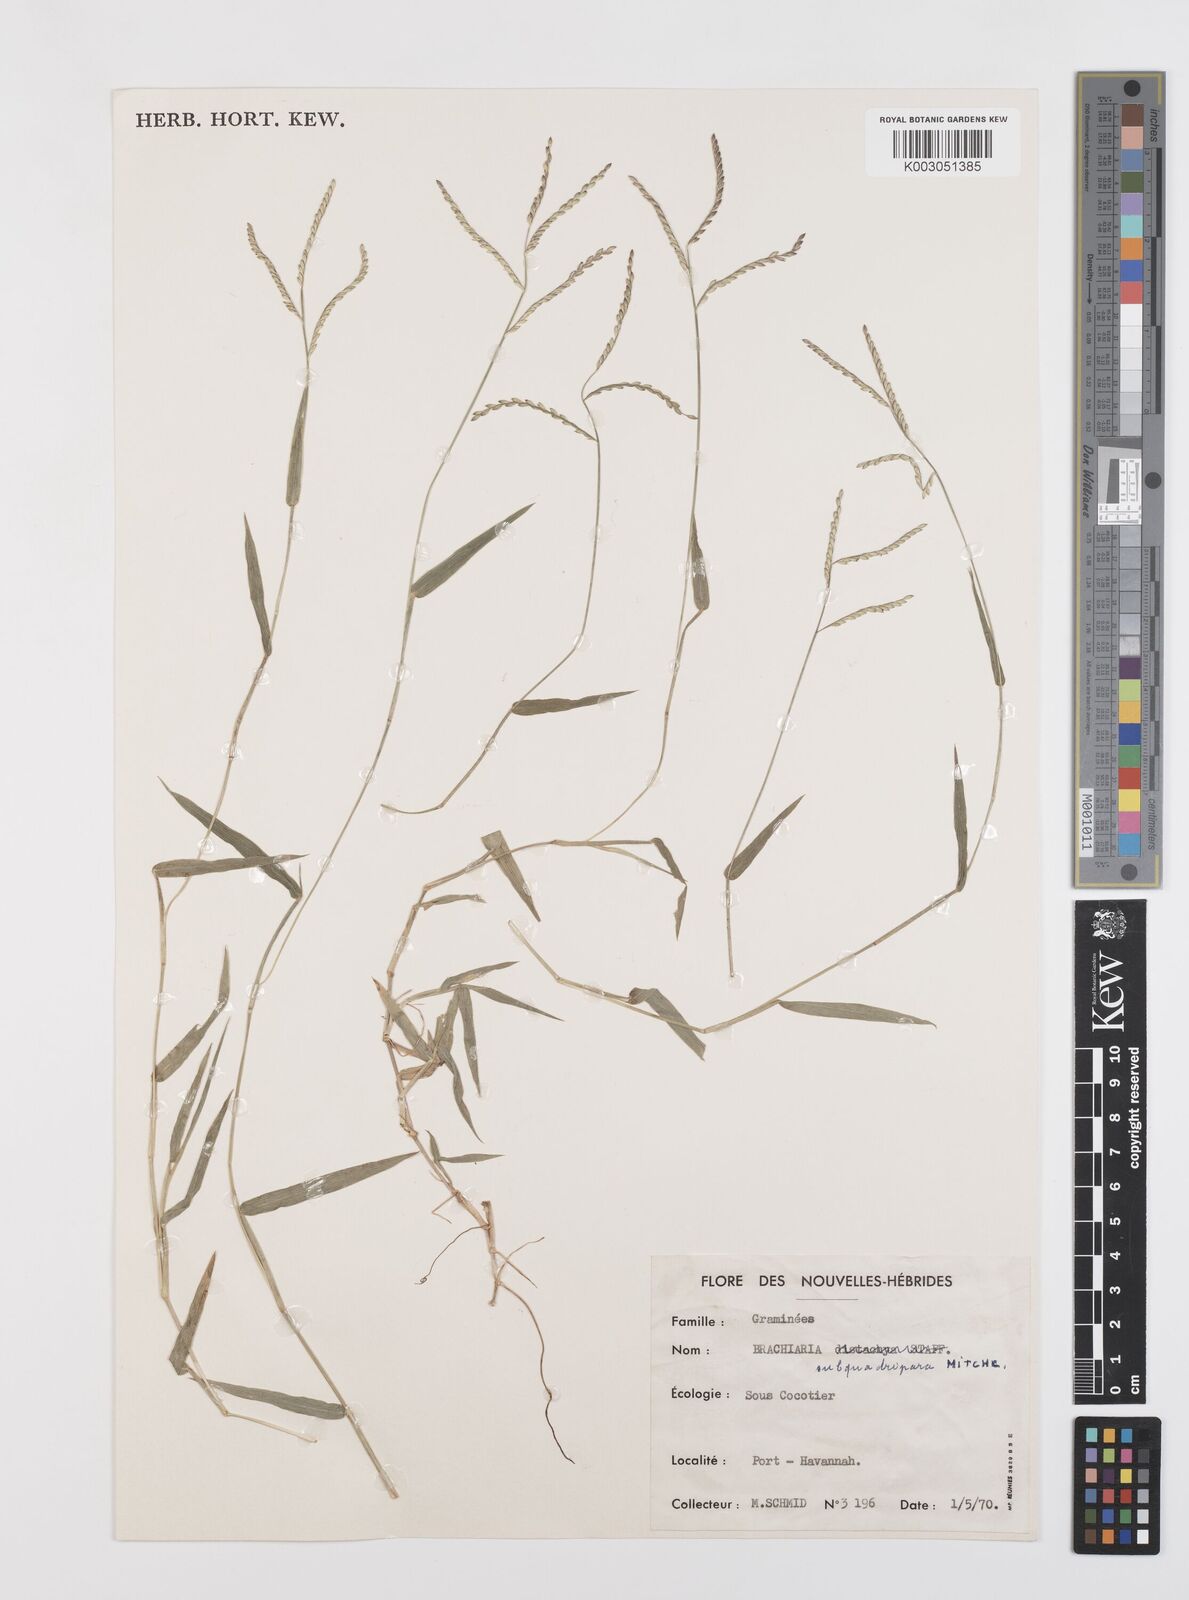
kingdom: Plantae
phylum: Tracheophyta
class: Liliopsida
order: Poales
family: Poaceae
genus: Urochloa
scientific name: Urochloa subquadripara
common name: Armgrass millet
